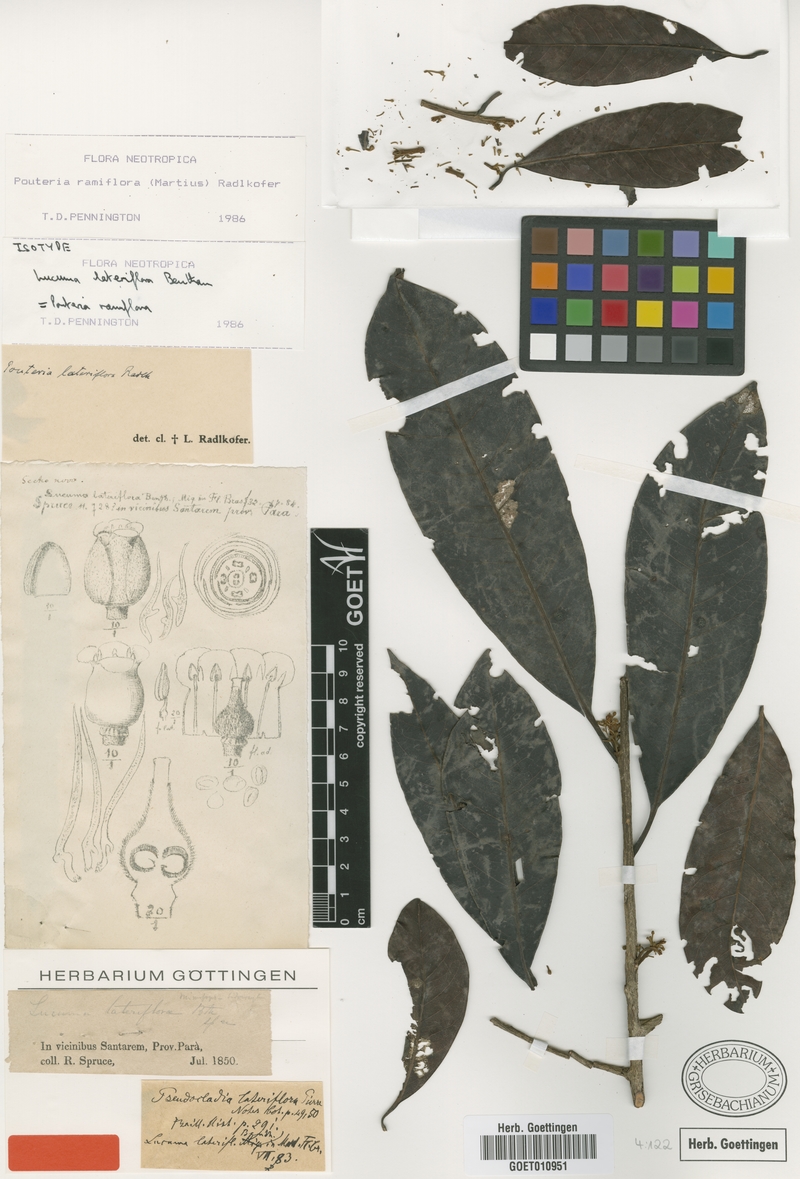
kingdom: Plantae
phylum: Tracheophyta
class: Magnoliopsida
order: Ericales
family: Sapotaceae
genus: Pouteria
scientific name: Pouteria ramiflora
